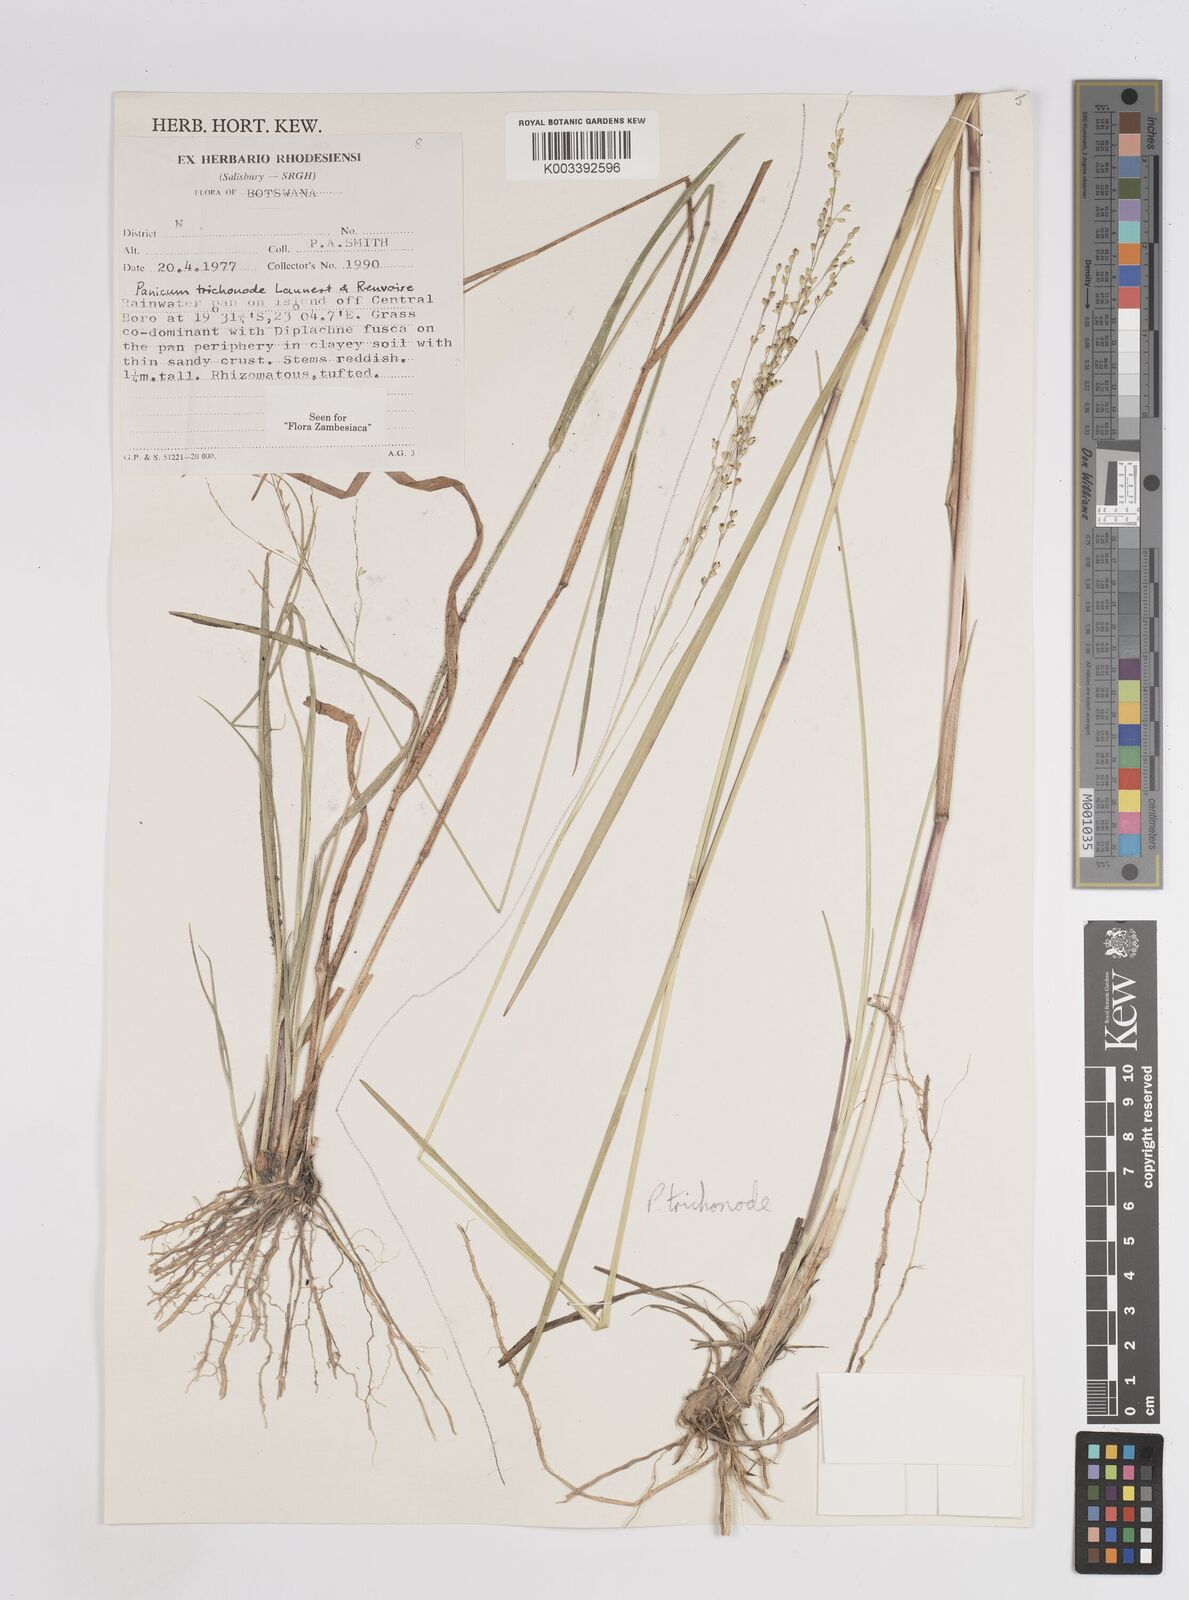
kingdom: Plantae
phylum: Tracheophyta
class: Liliopsida
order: Poales
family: Poaceae
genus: Panicum
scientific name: Panicum trichonode
